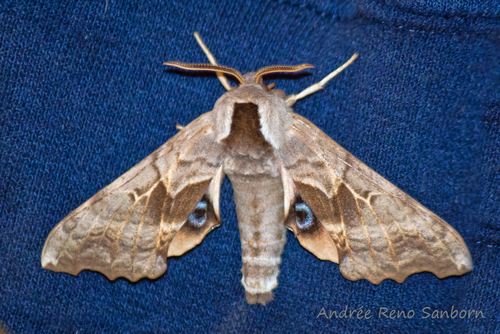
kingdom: Animalia
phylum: Arthropoda
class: Insecta
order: Lepidoptera
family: Sphingidae
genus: Smerinthus
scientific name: Smerinthus cerisyi
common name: Cerisy's sphinx moth
